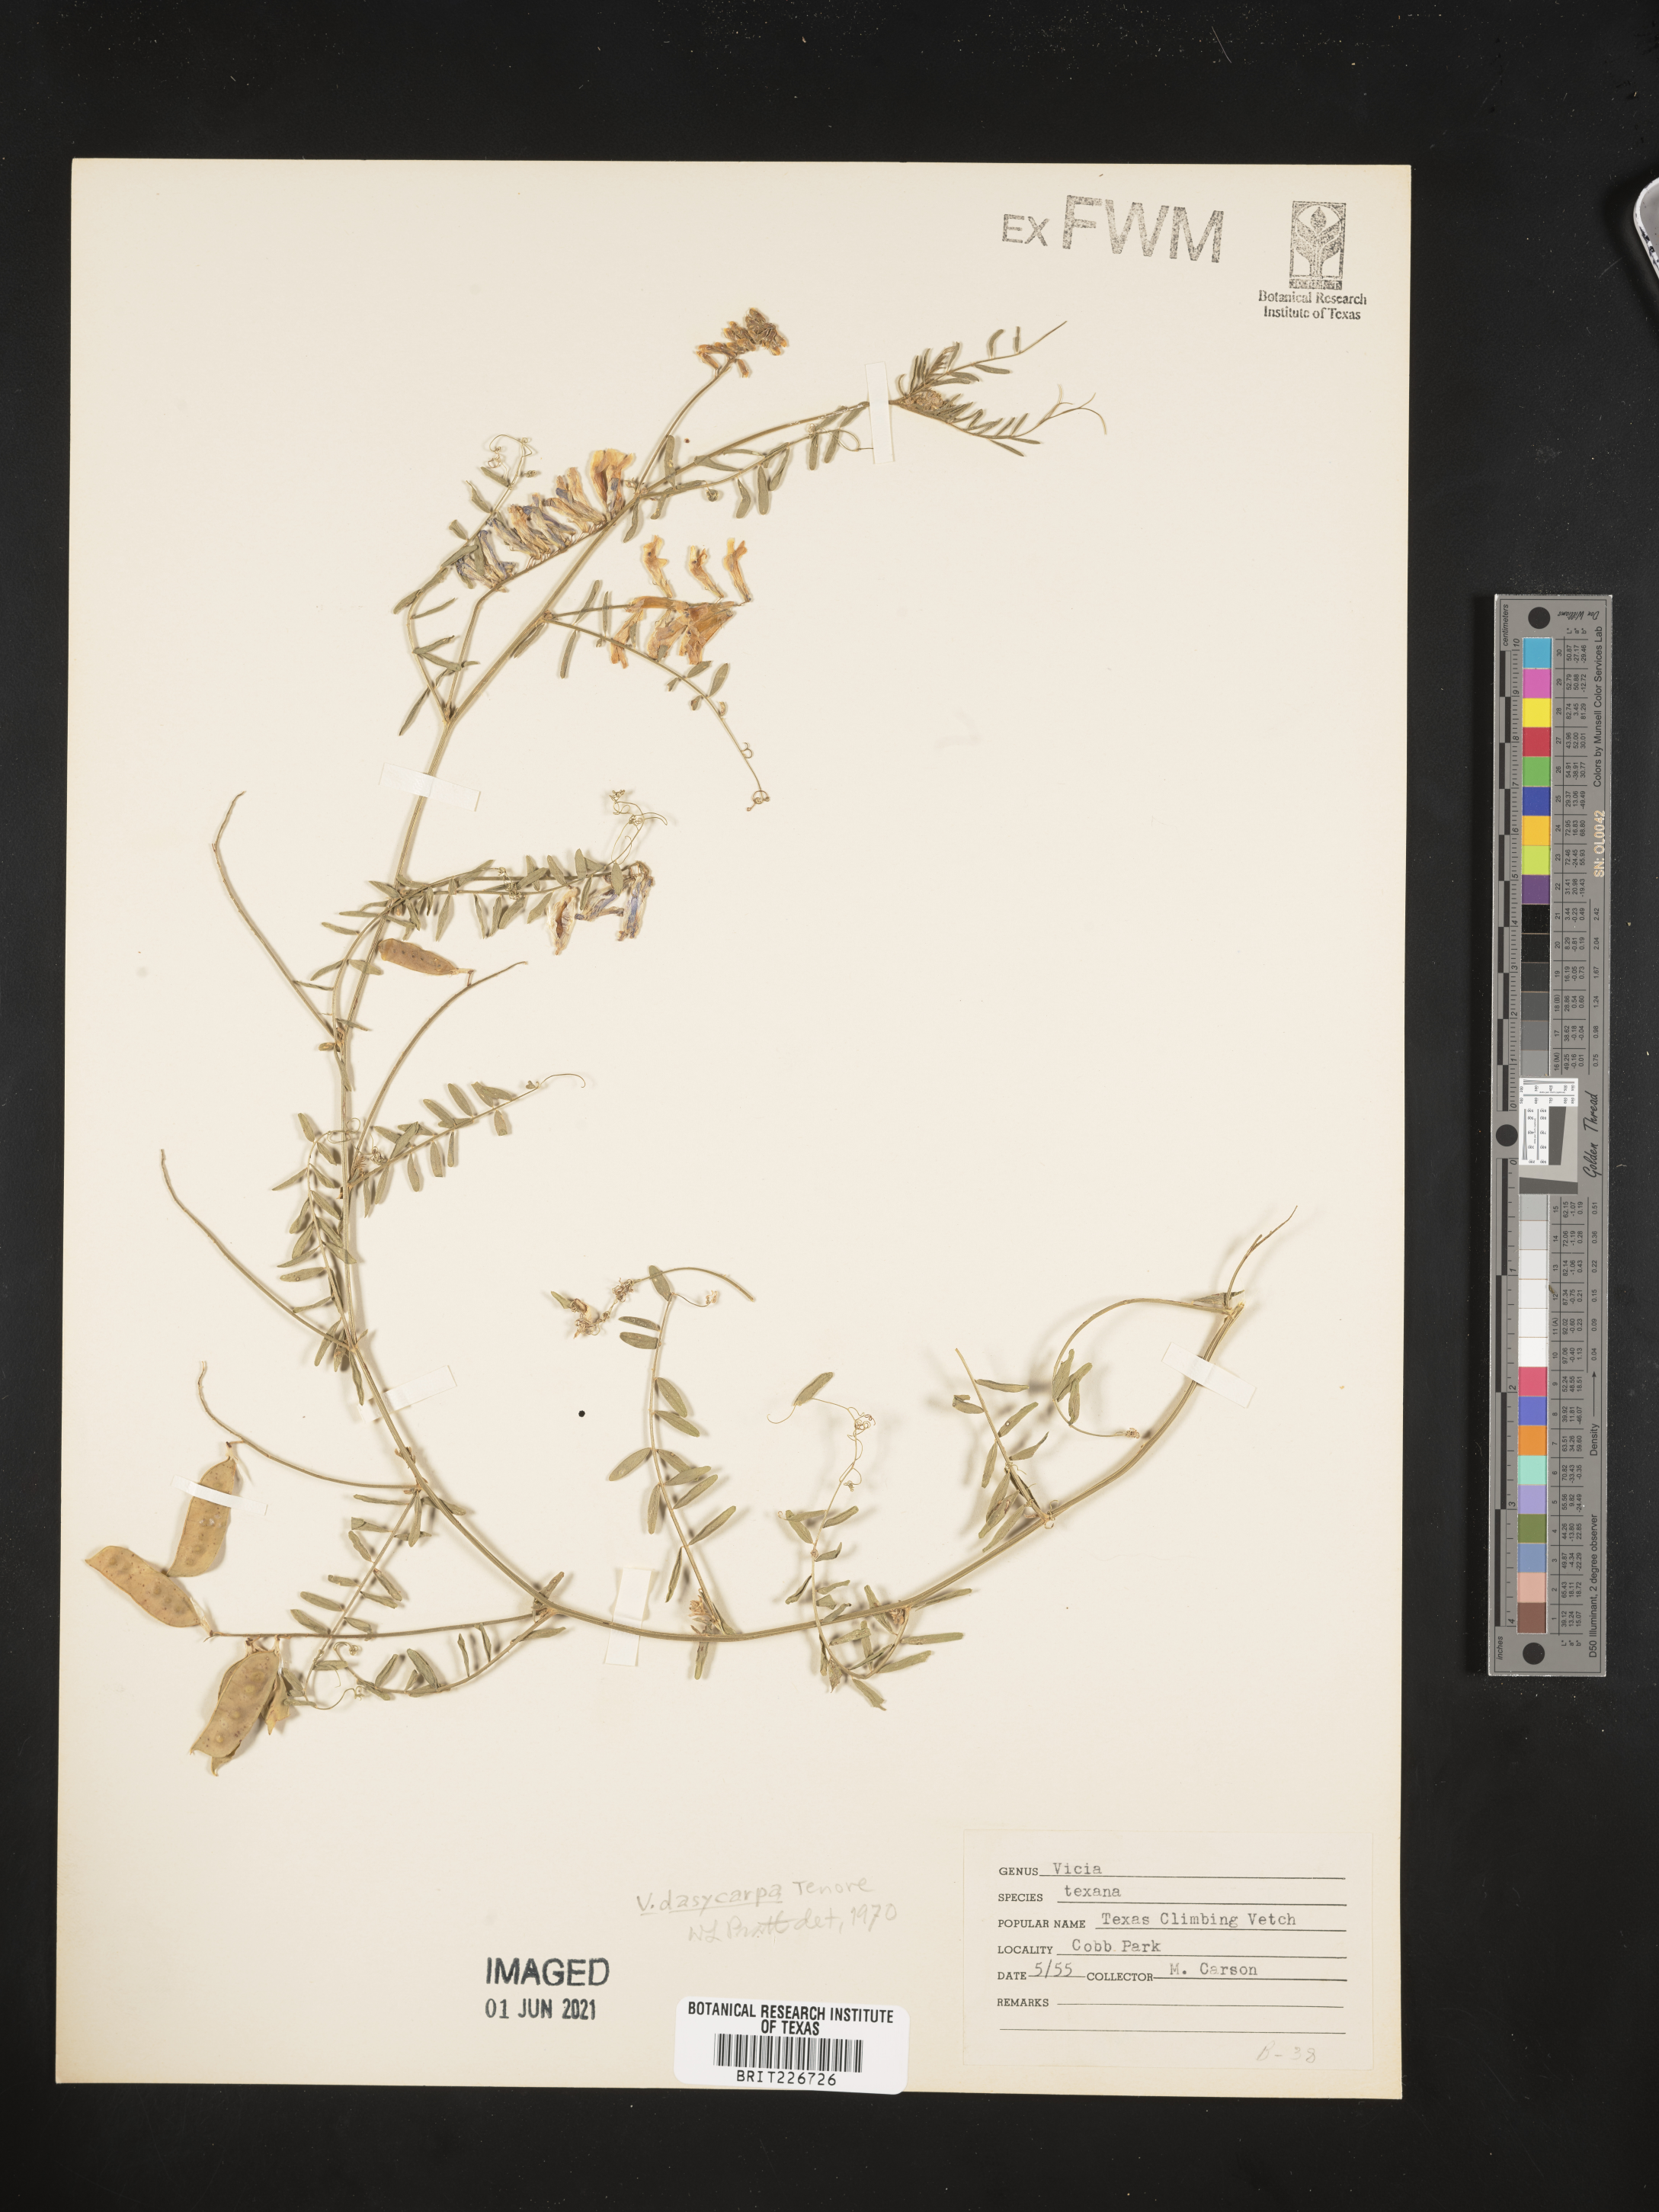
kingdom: Plantae
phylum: Tracheophyta
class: Magnoliopsida
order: Fabales
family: Fabaceae
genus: Vicia
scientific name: Vicia ludoviciana
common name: Louisiana vetch
